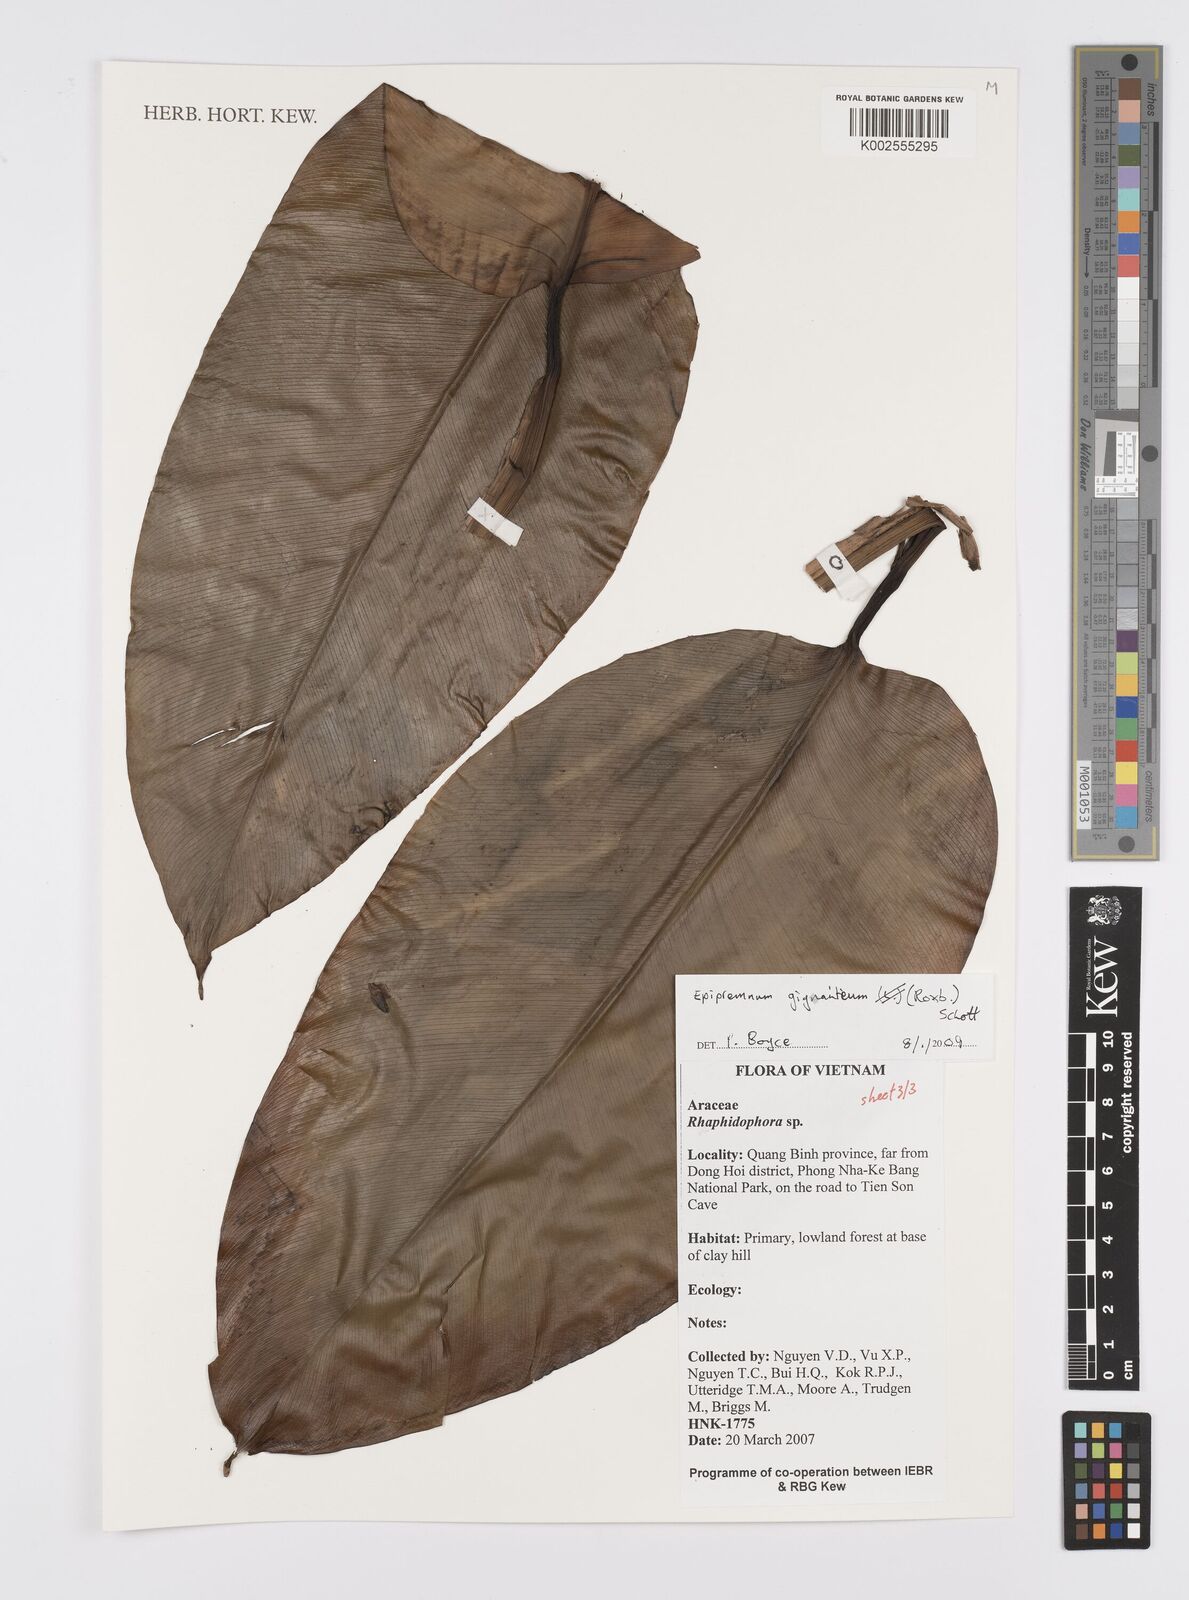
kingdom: Plantae
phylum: Tracheophyta
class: Liliopsida
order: Alismatales
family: Araceae
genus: Epipremnum
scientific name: Epipremnum giganteum
